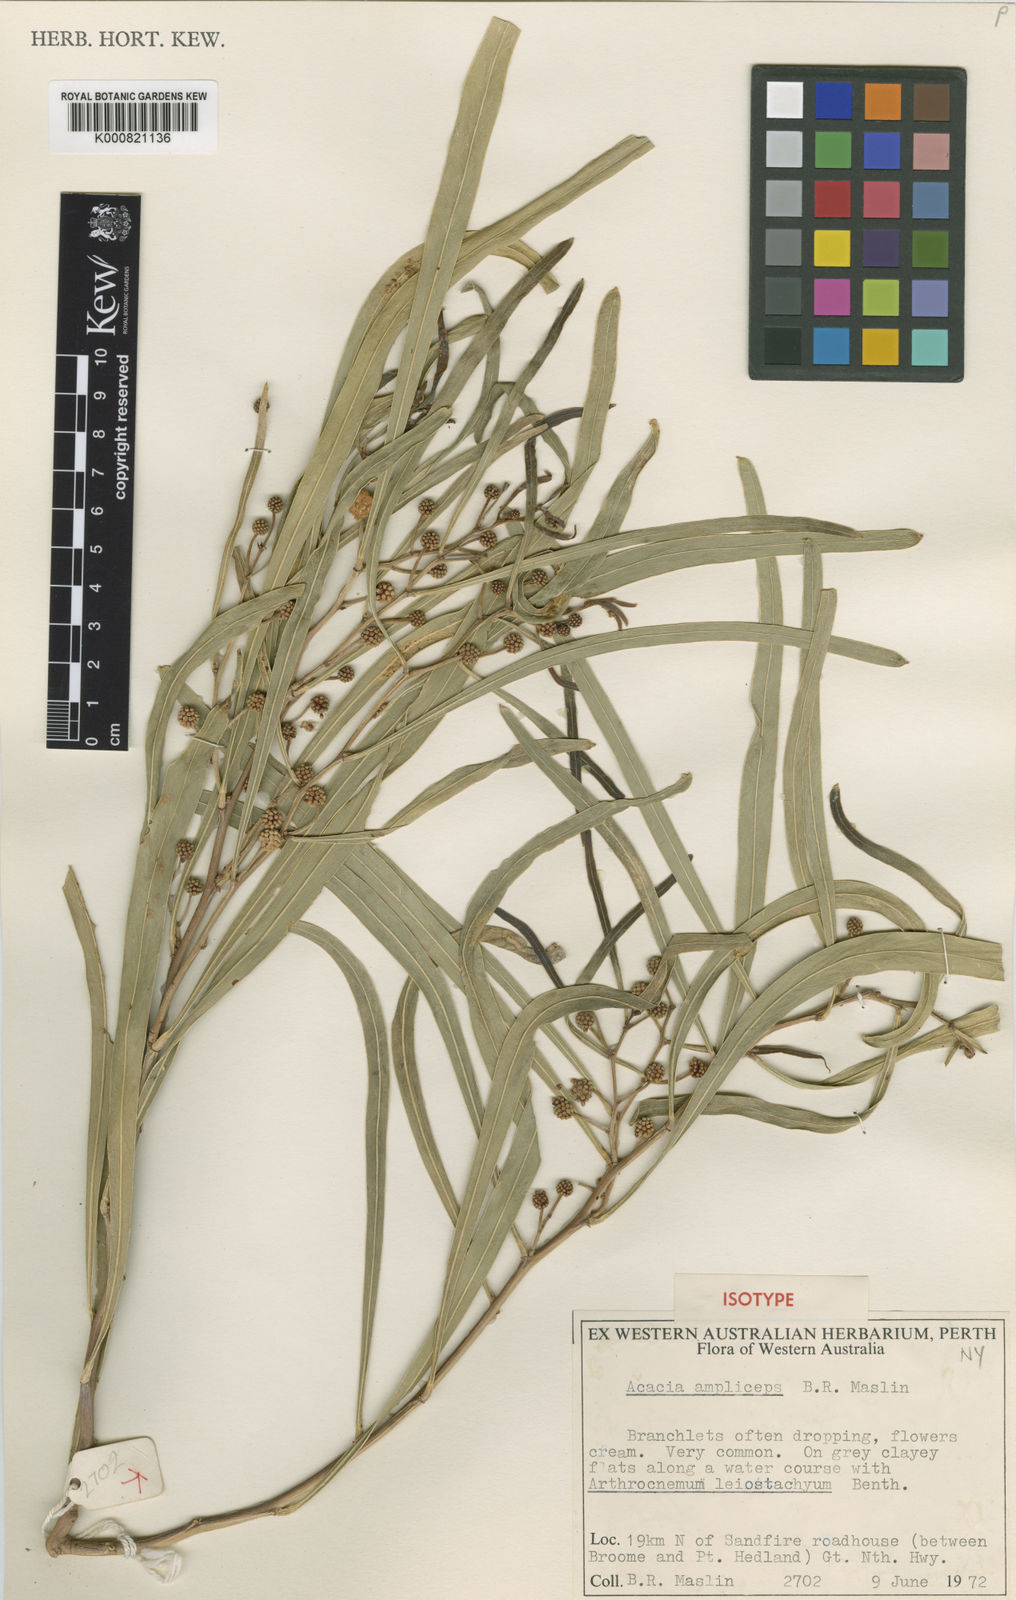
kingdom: Plantae
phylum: Tracheophyta
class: Magnoliopsida
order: Fabales
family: Fabaceae
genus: Acacia
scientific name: Acacia ampliceps
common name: Salt wattle
